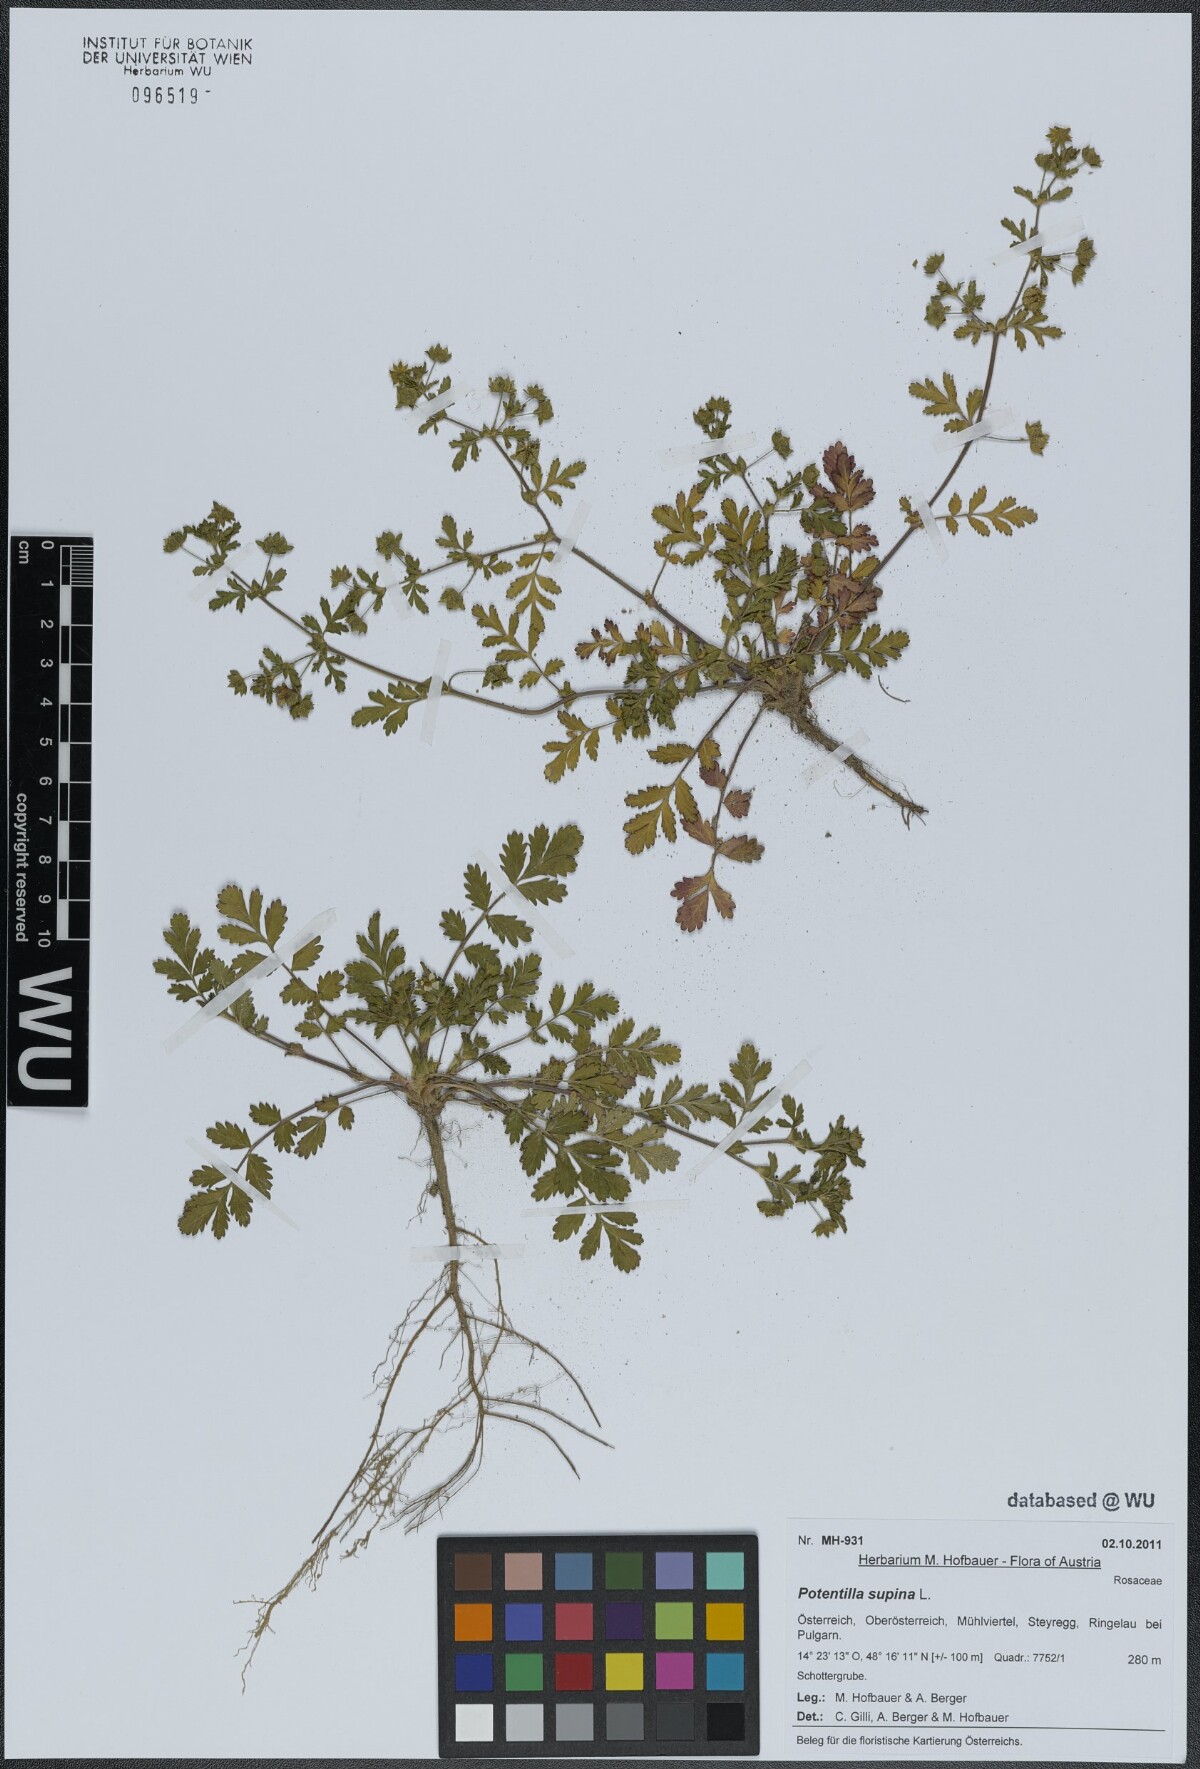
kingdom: Plantae
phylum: Tracheophyta
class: Magnoliopsida
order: Rosales
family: Rosaceae
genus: Potentilla
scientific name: Potentilla supina
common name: Prostrate cinquefoil
